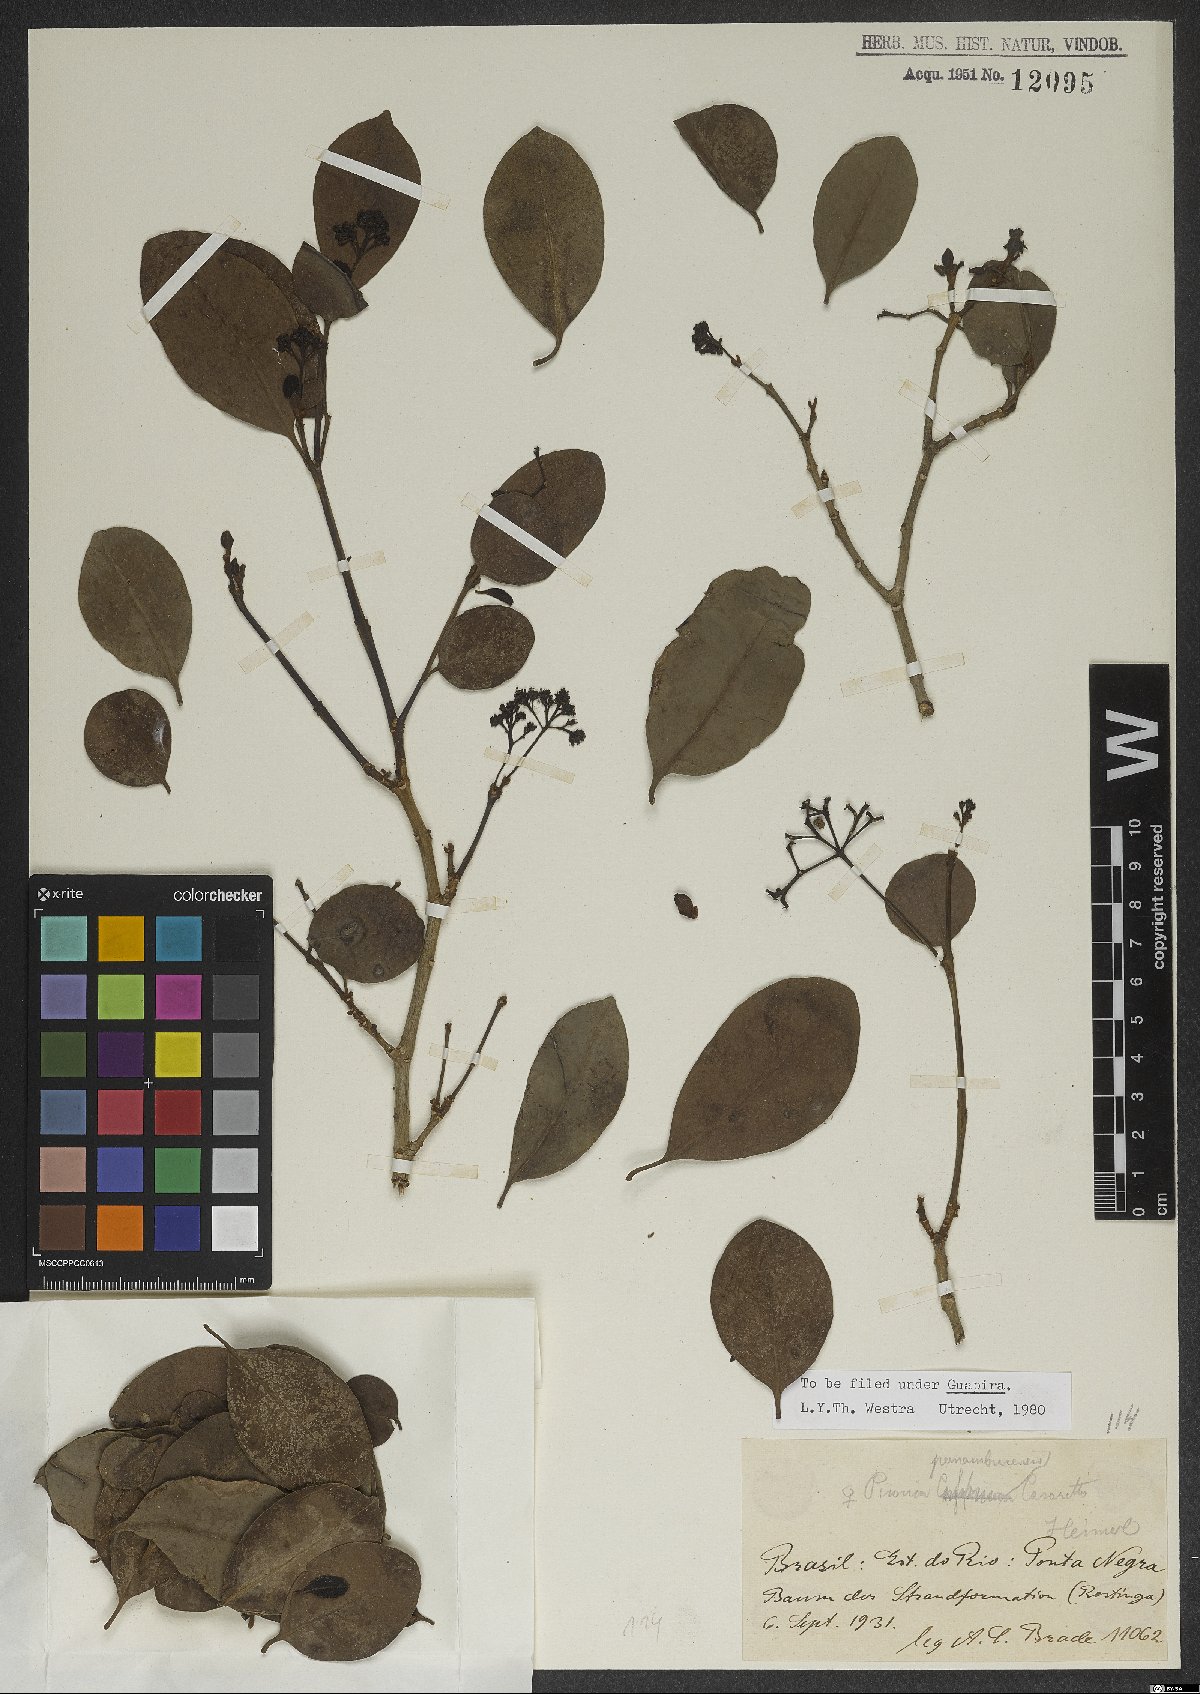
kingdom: Plantae
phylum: Tracheophyta
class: Magnoliopsida
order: Caryophyllales
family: Nyctaginaceae
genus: Guapira
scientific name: Guapira pernambucensis
